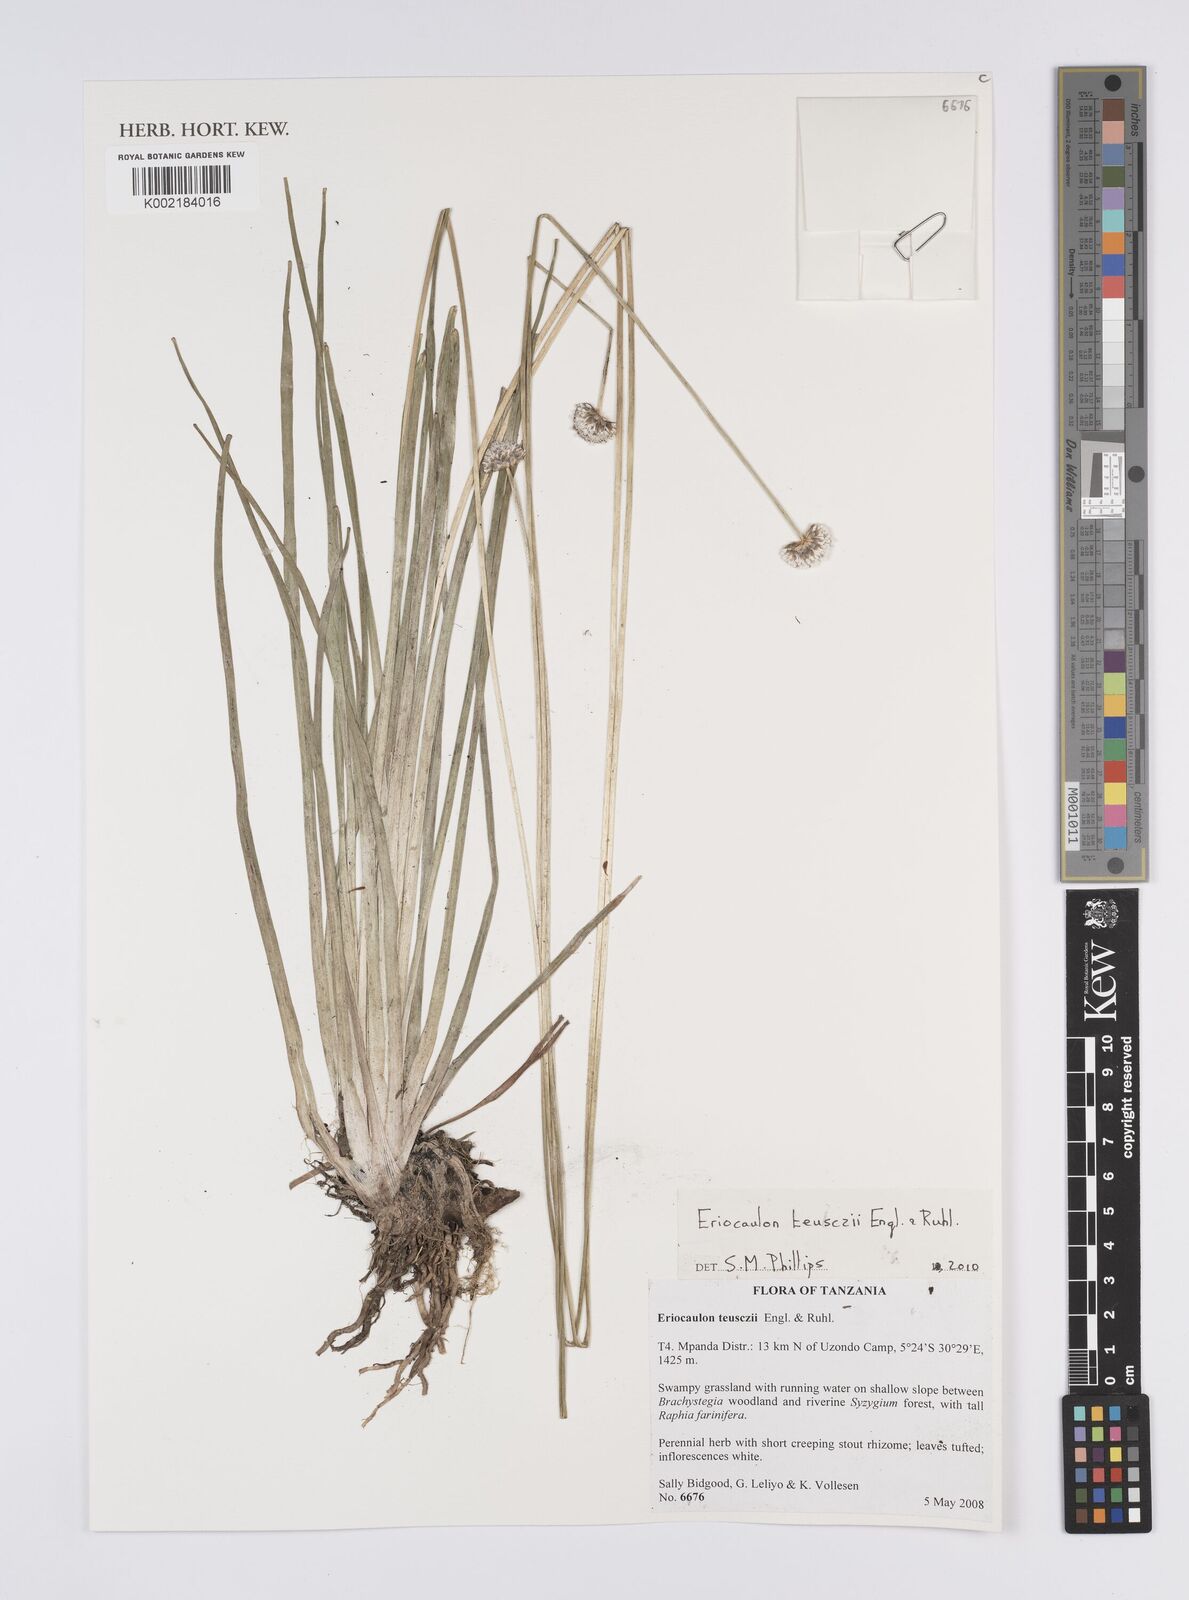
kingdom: Plantae
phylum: Tracheophyta
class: Liliopsida
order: Poales
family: Eriocaulaceae
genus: Eriocaulon
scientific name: Eriocaulon teusczii
